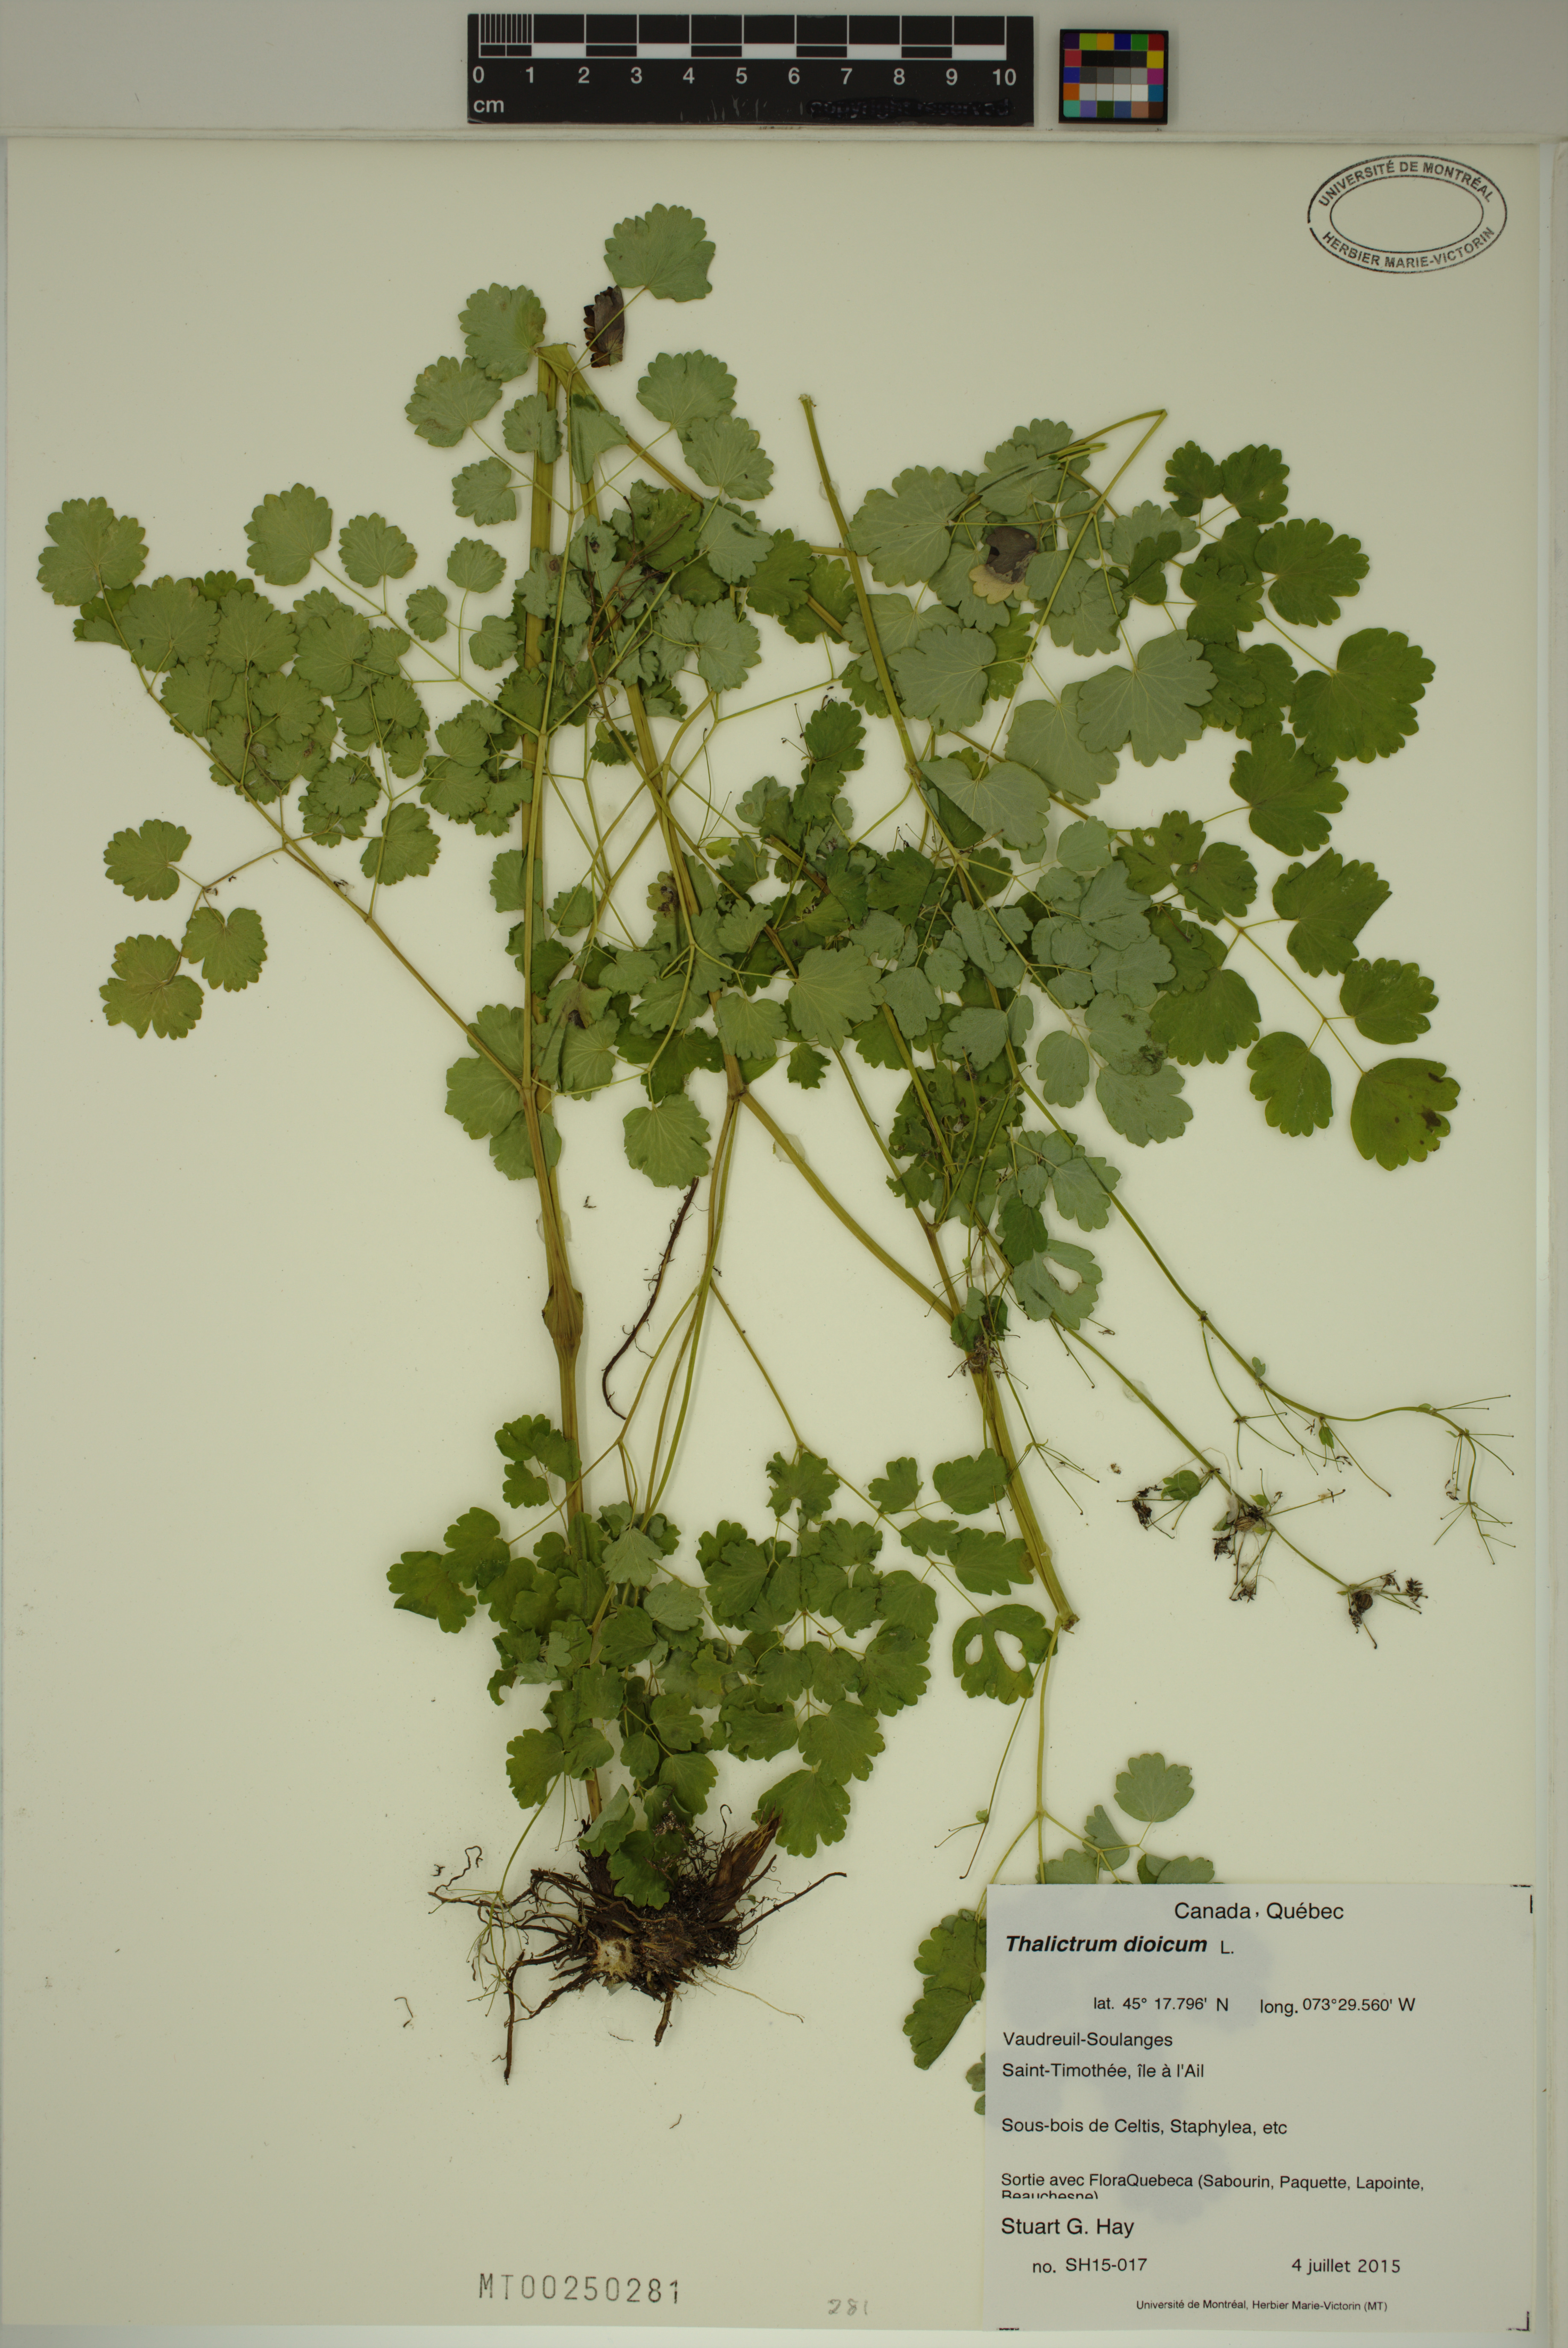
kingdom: Plantae
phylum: Tracheophyta
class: Magnoliopsida
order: Ranunculales
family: Ranunculaceae
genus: Thalictrum
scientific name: Thalictrum dioicum
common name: Early meadow-rue
